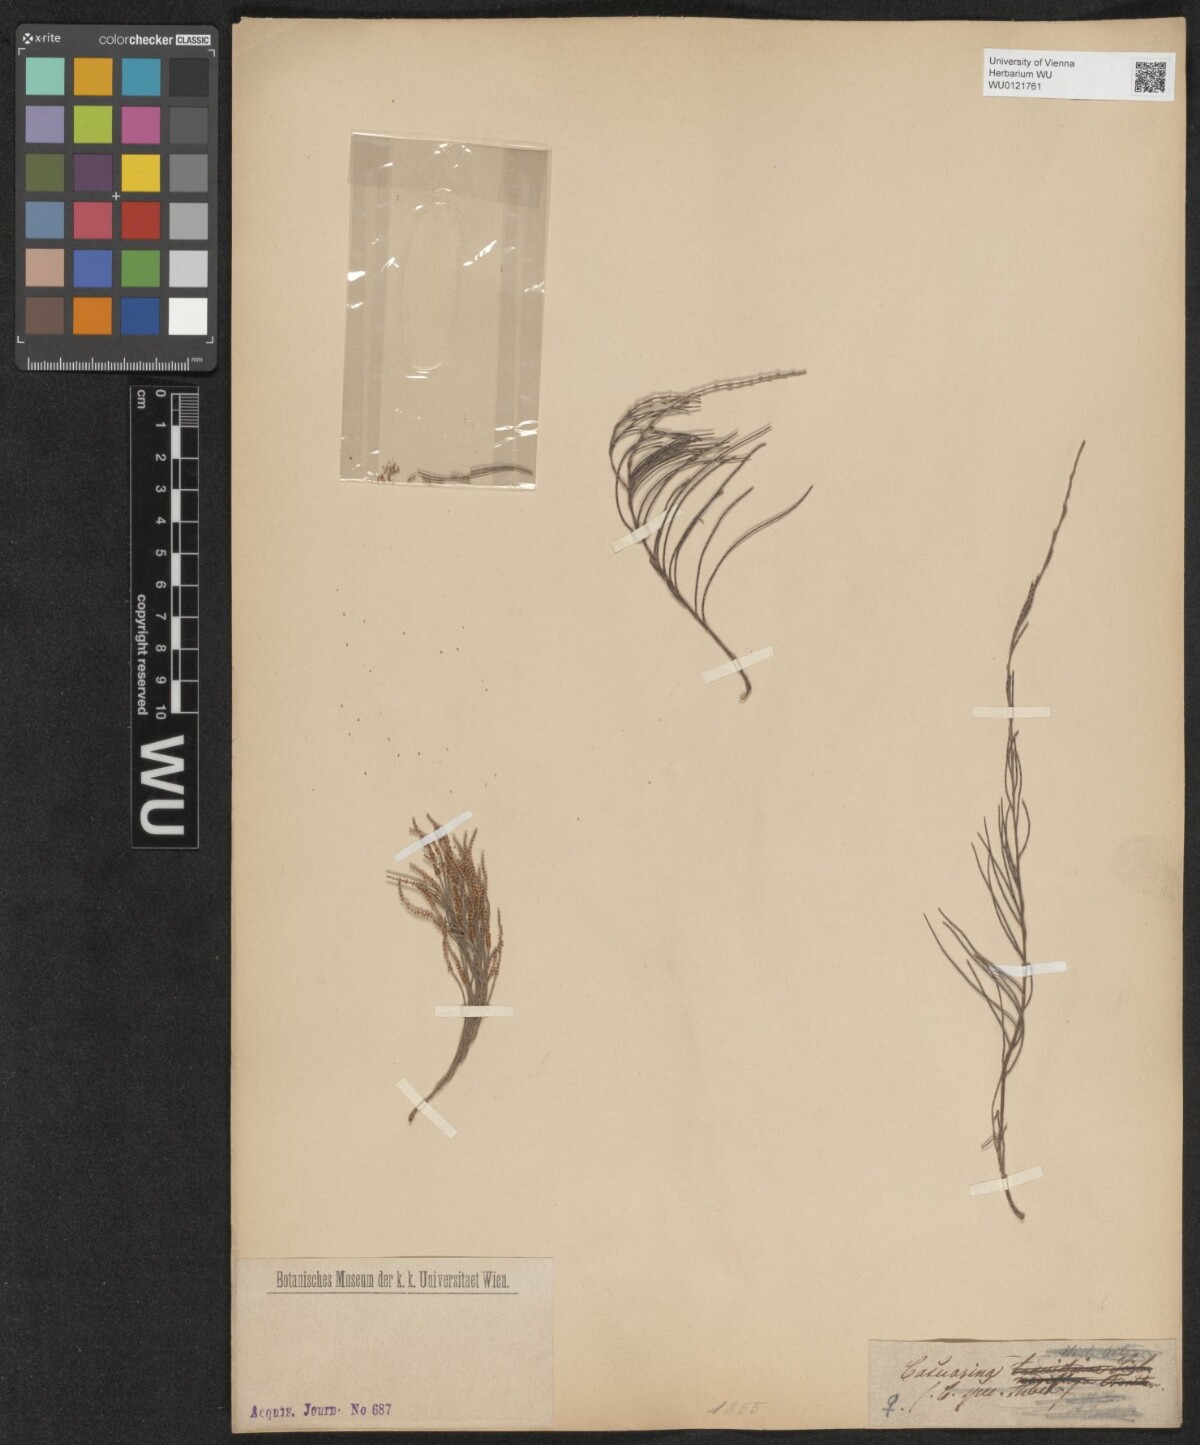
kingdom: Plantae
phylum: Tracheophyta
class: Magnoliopsida
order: Fagales
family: Casuarinaceae
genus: Casuarina
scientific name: Casuarina
